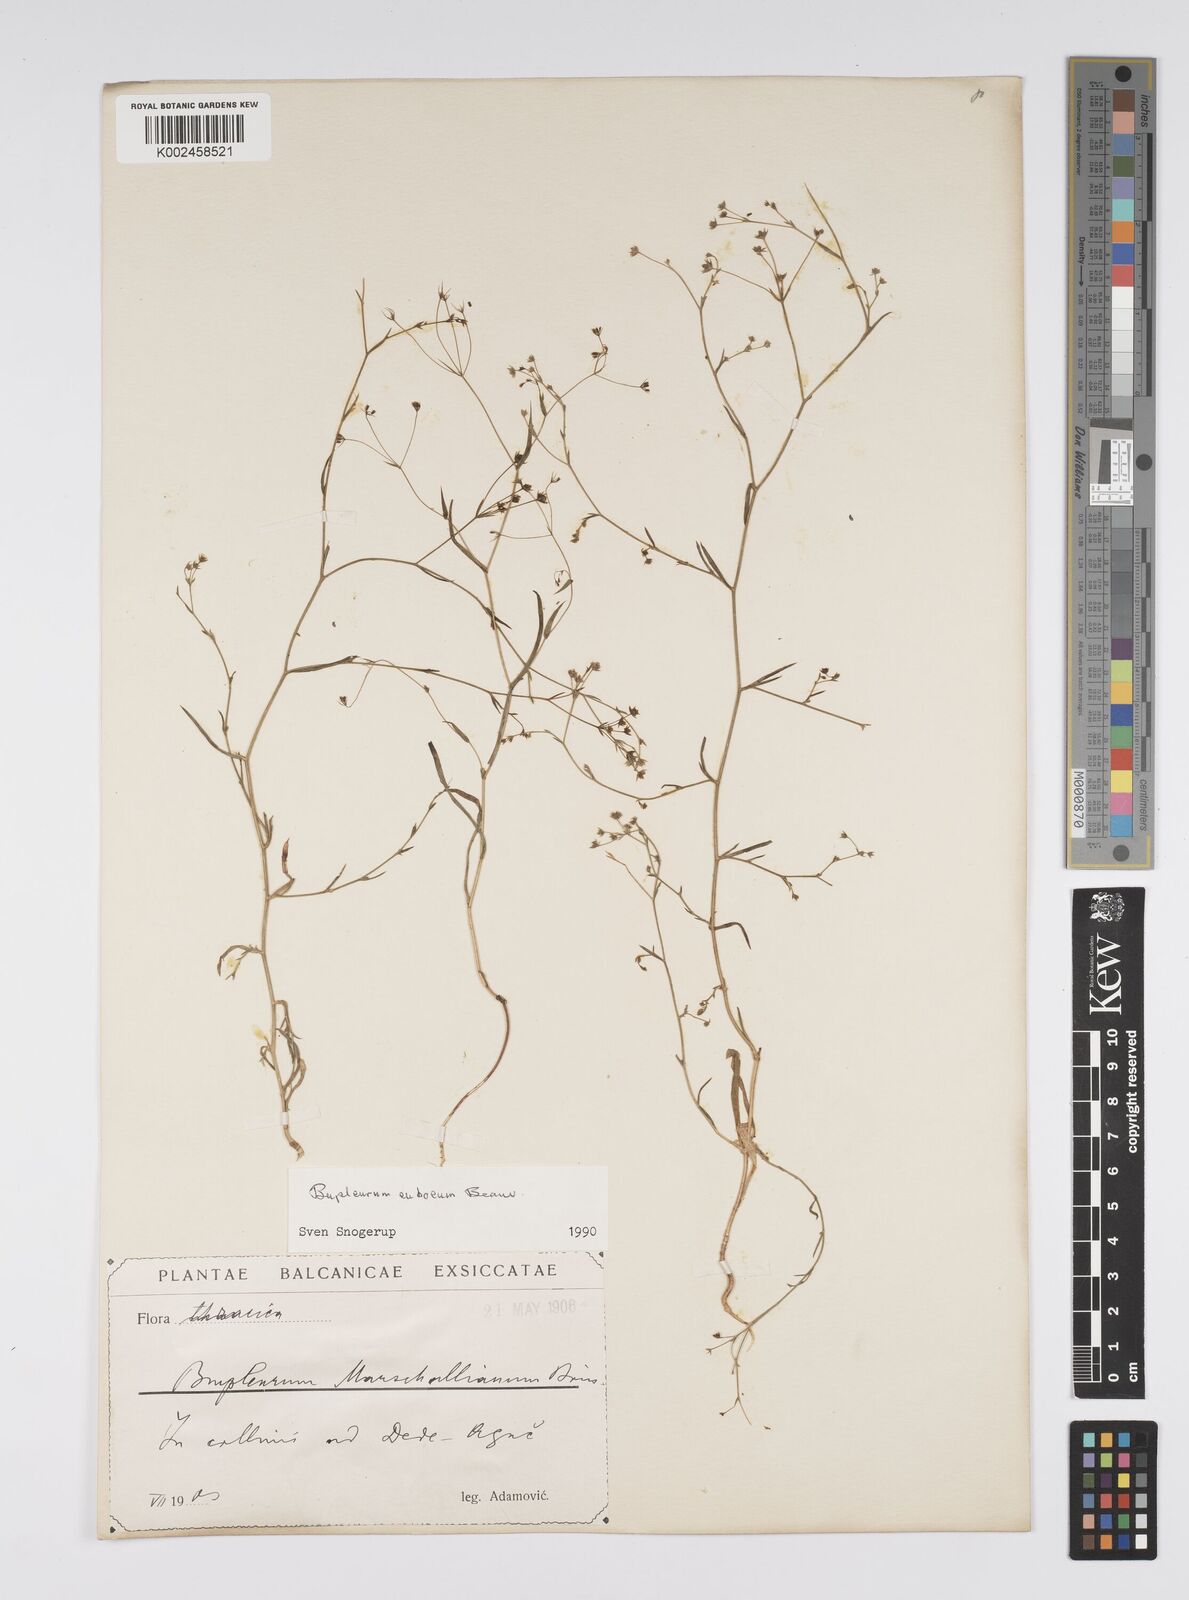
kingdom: Plantae
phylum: Tracheophyta
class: Magnoliopsida
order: Apiales
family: Apiaceae
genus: Bupleurum
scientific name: Bupleurum tenuissimum
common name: Slender hare's-ear
